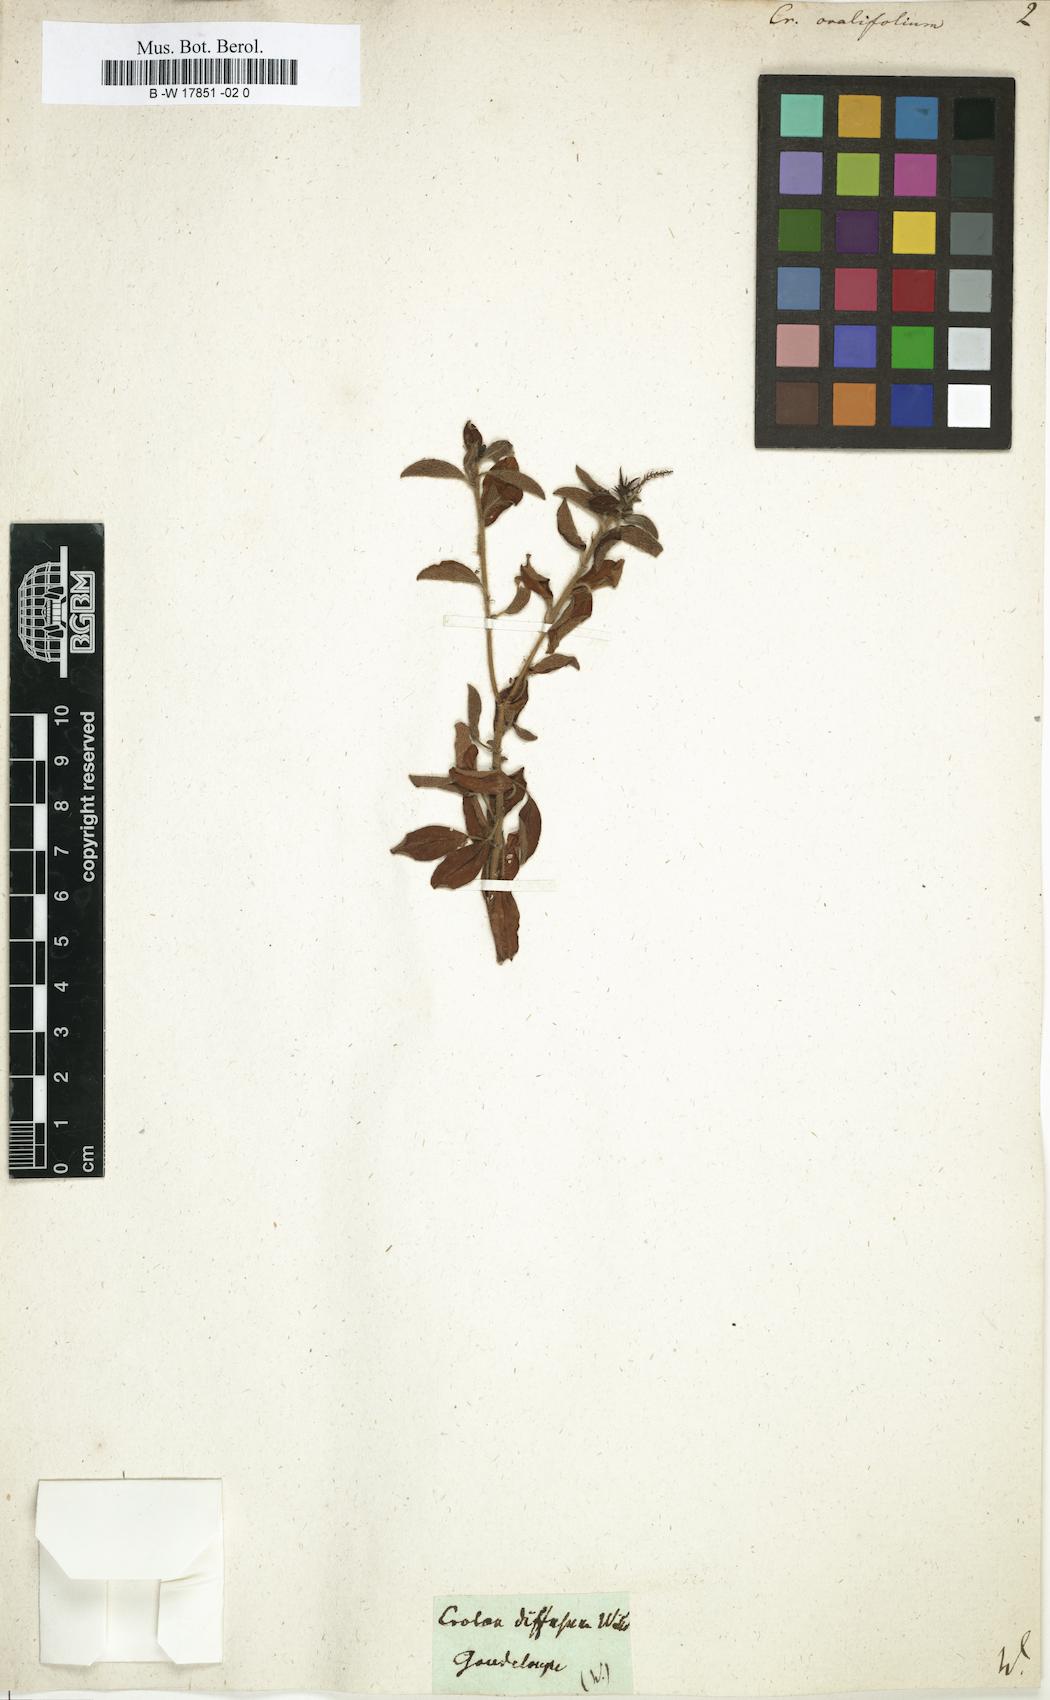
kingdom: Plantae
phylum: Tracheophyta
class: Magnoliopsida
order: Malpighiales
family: Euphorbiaceae
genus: Croton
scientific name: Croton ovalifolius
